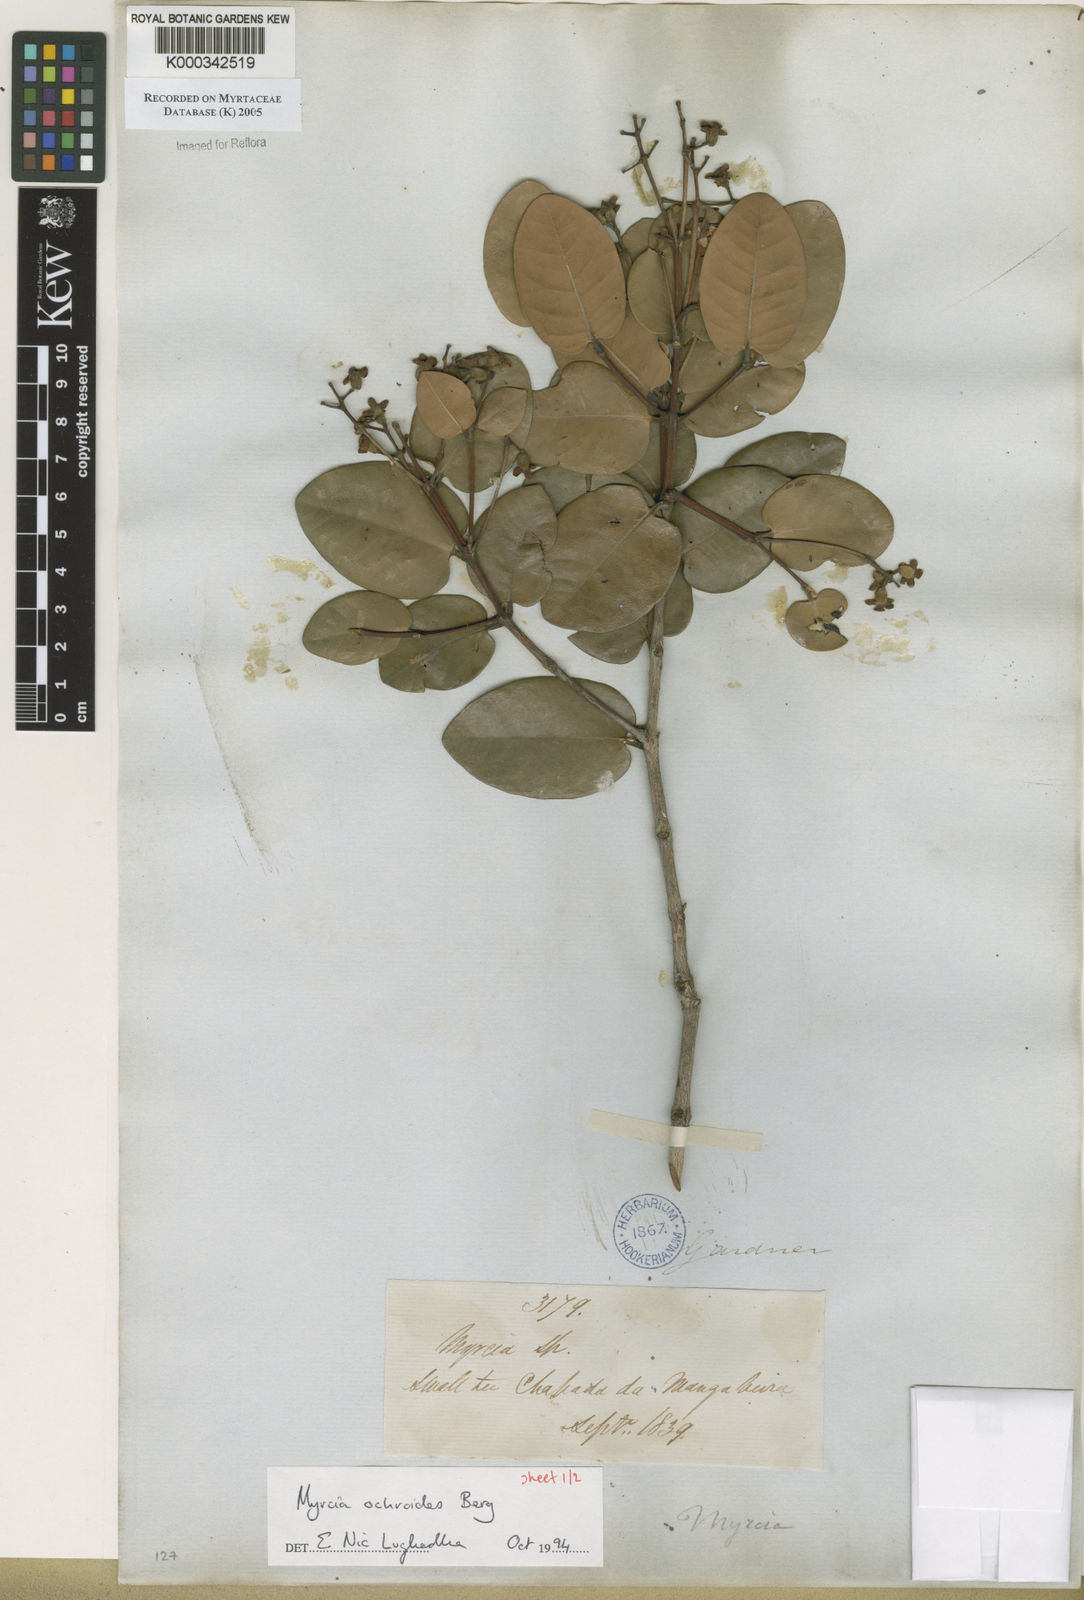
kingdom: Plantae
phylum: Tracheophyta
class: Magnoliopsida
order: Myrtales
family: Myrtaceae
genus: Myrcia
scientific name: Myrcia ochroides
